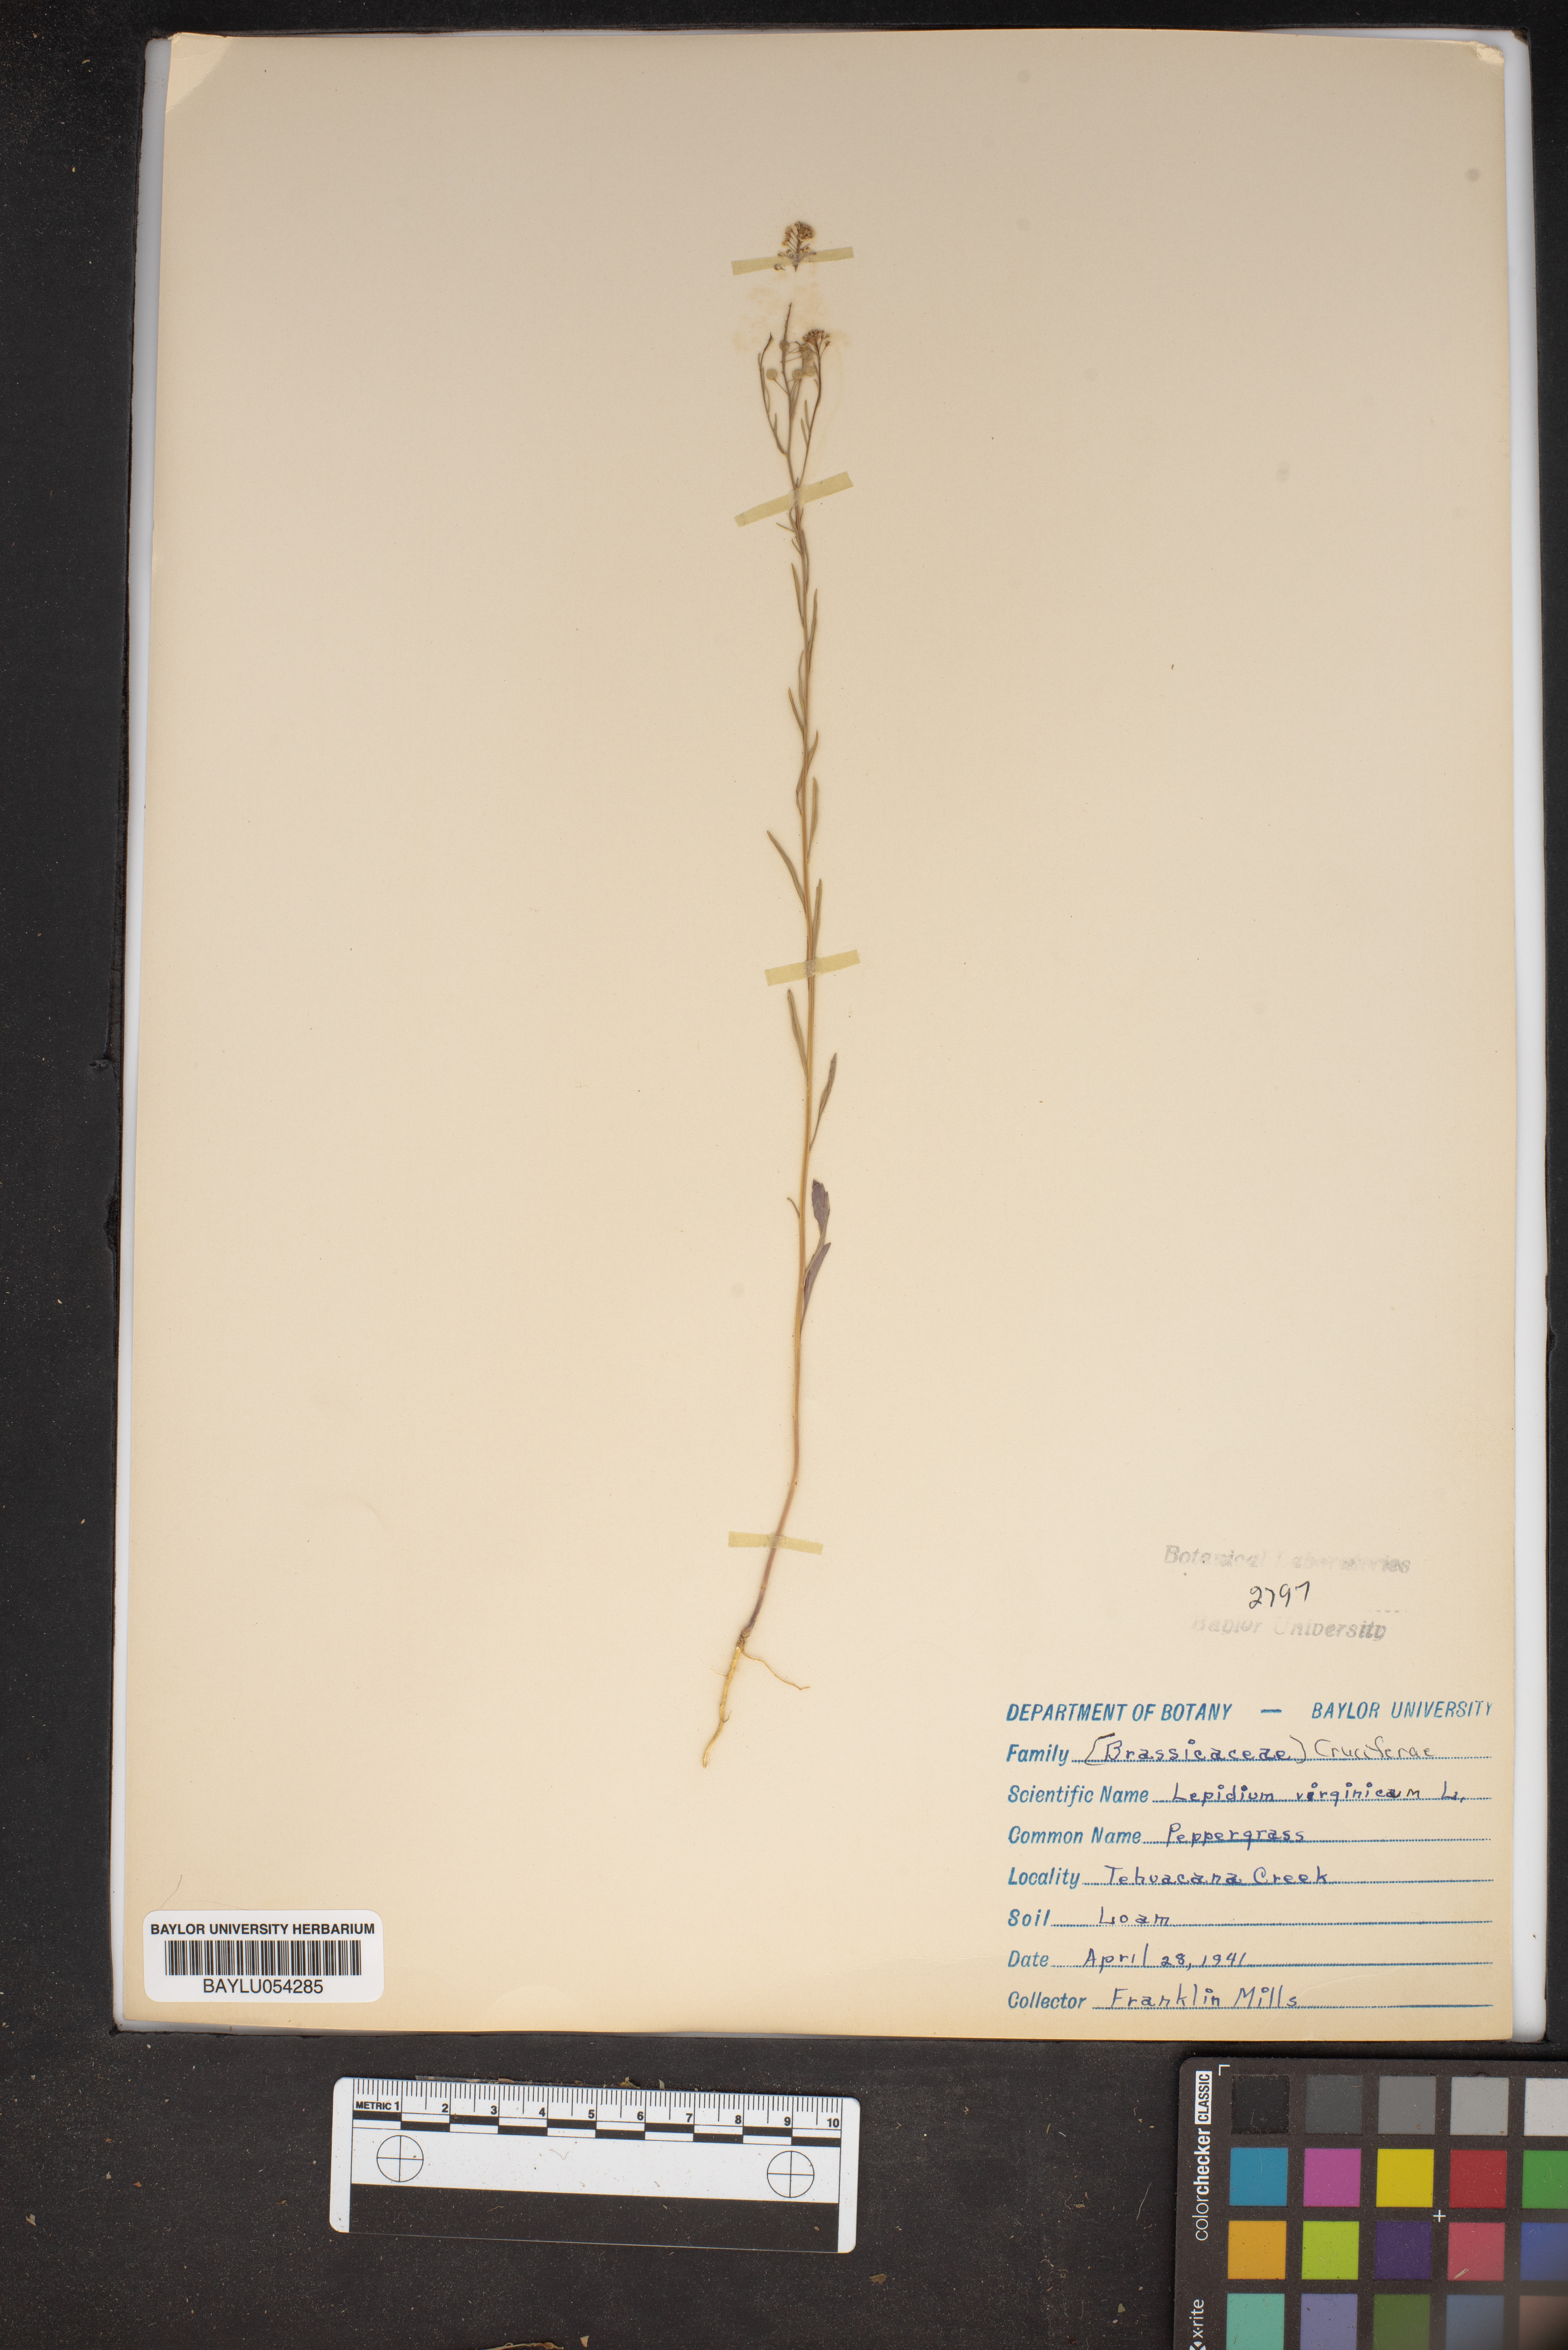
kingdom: Plantae
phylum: Tracheophyta
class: Magnoliopsida
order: Brassicales
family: Brassicaceae
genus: Lepidium
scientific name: Lepidium virginicum
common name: Least pepperwort
